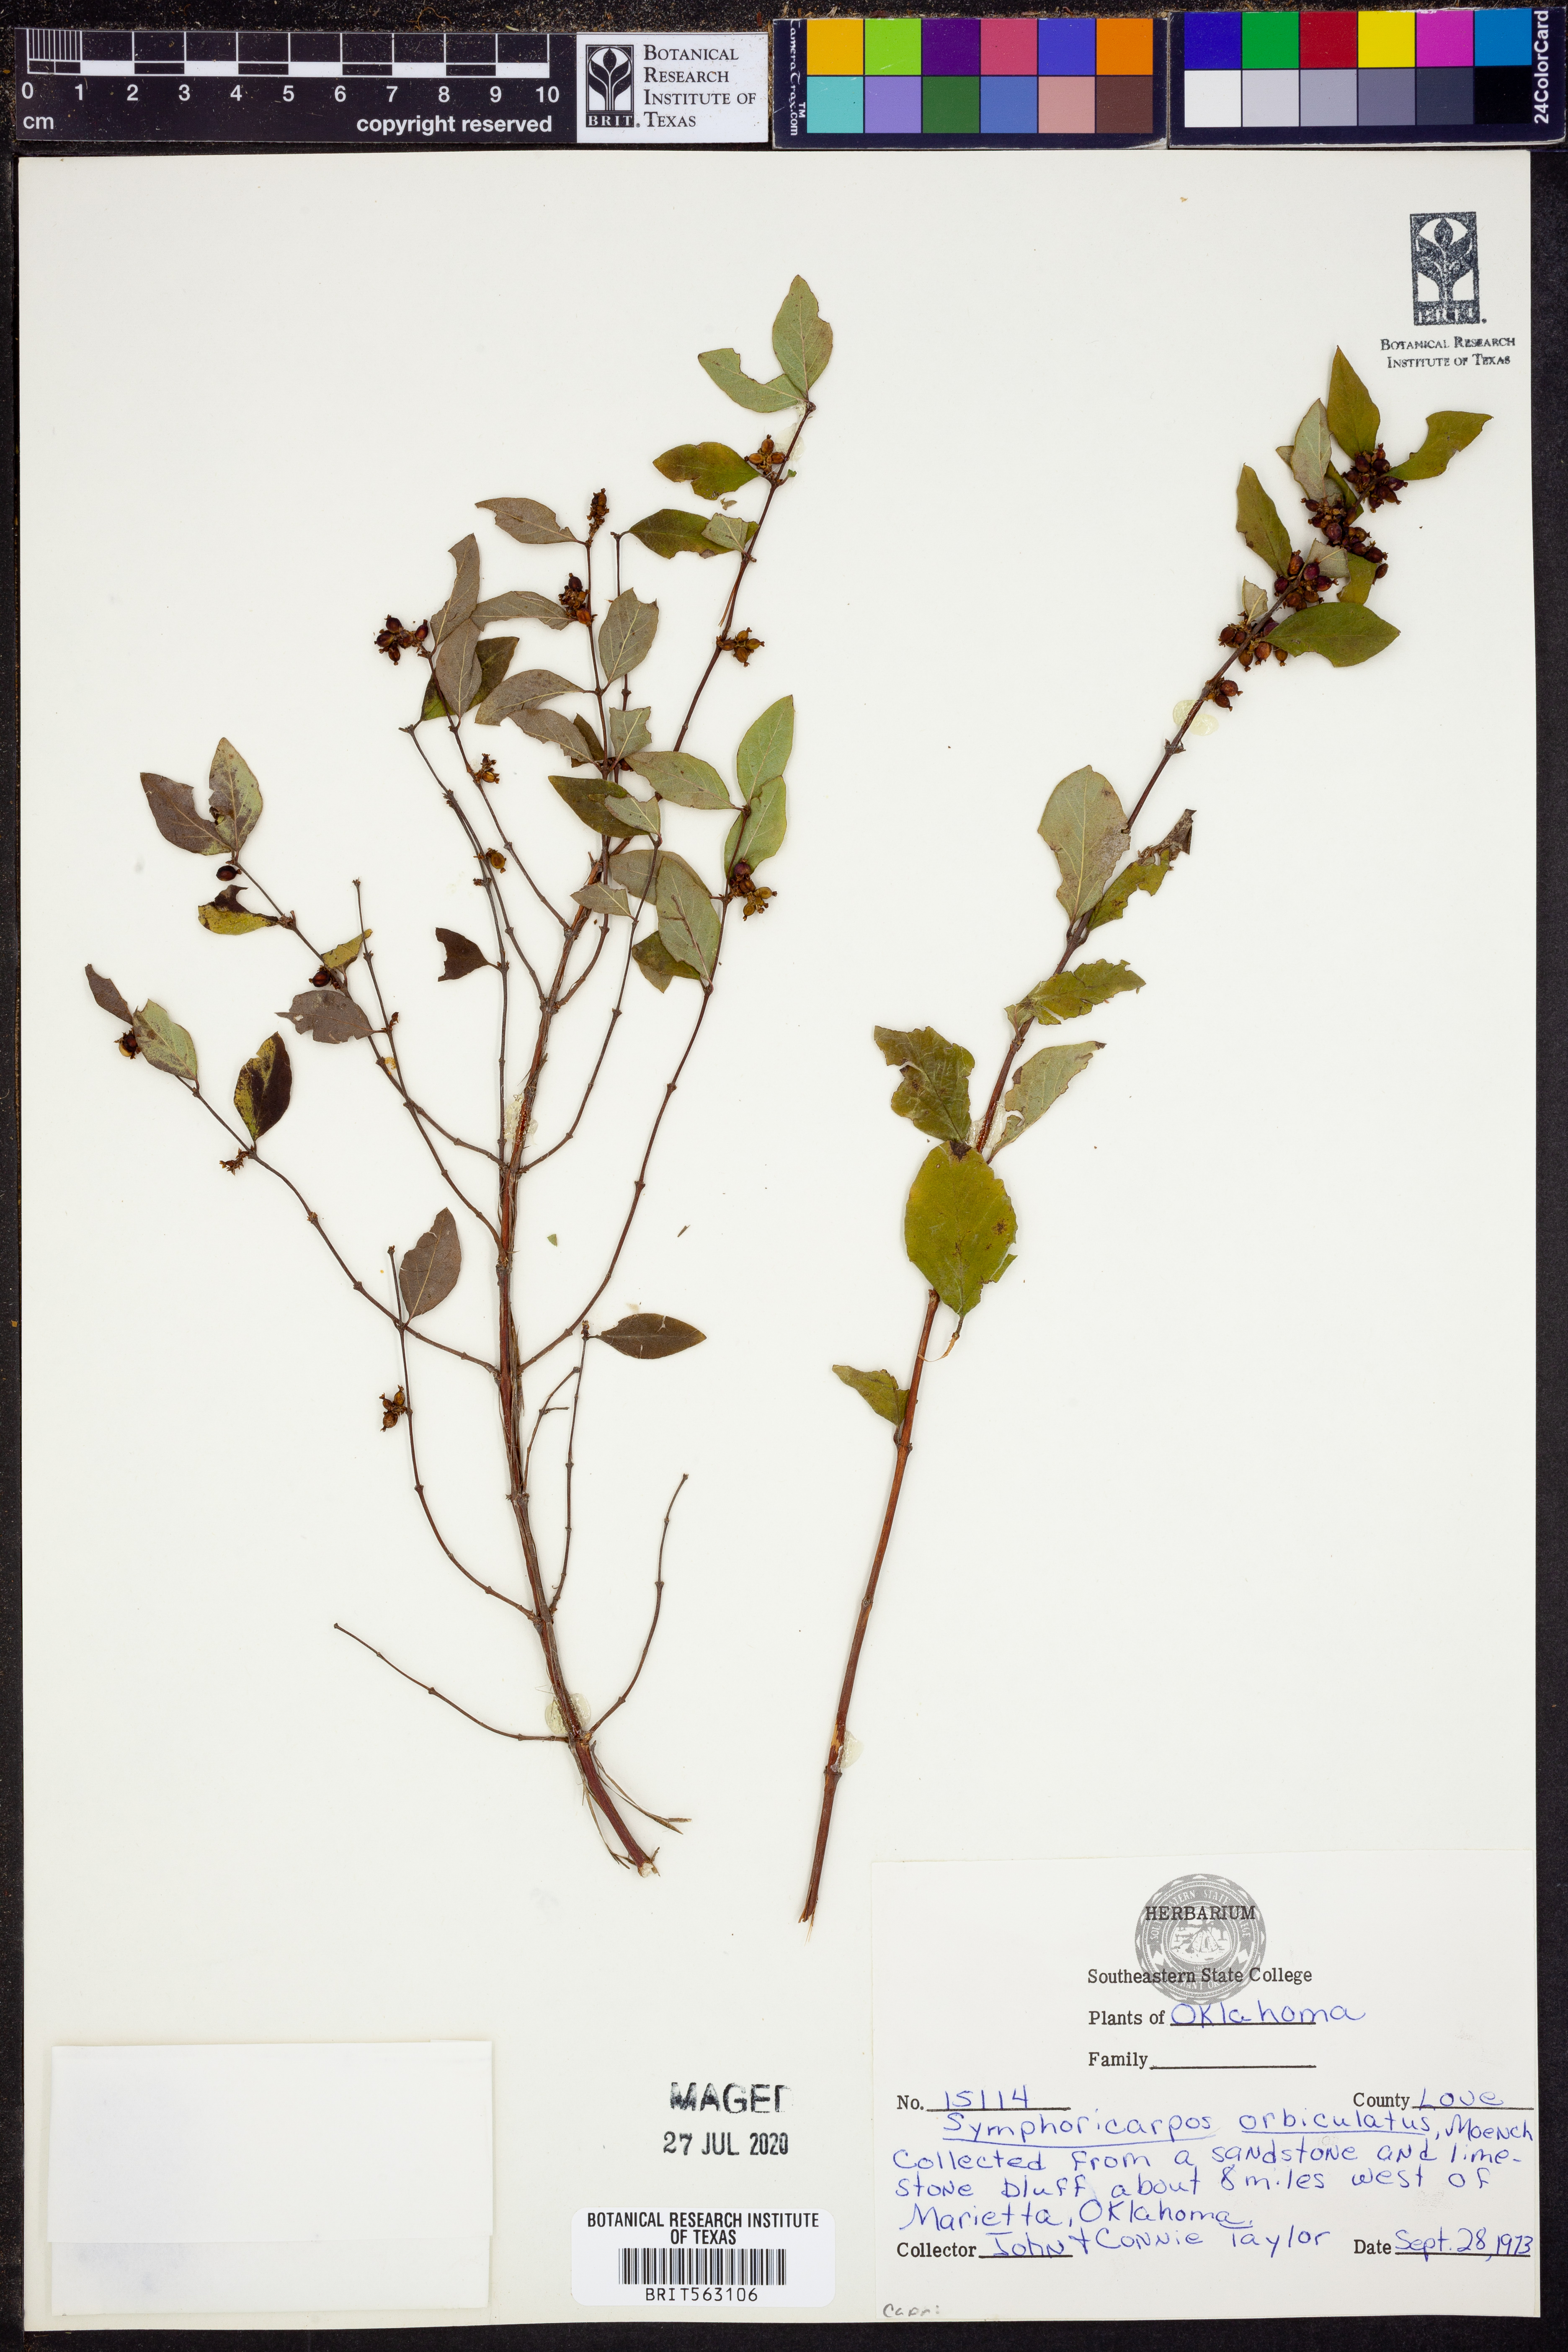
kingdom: Plantae
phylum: Tracheophyta
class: Magnoliopsida
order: Dipsacales
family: Caprifoliaceae
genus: Symphoricarpos
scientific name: Symphoricarpos orbiculatus
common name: Coralberry
